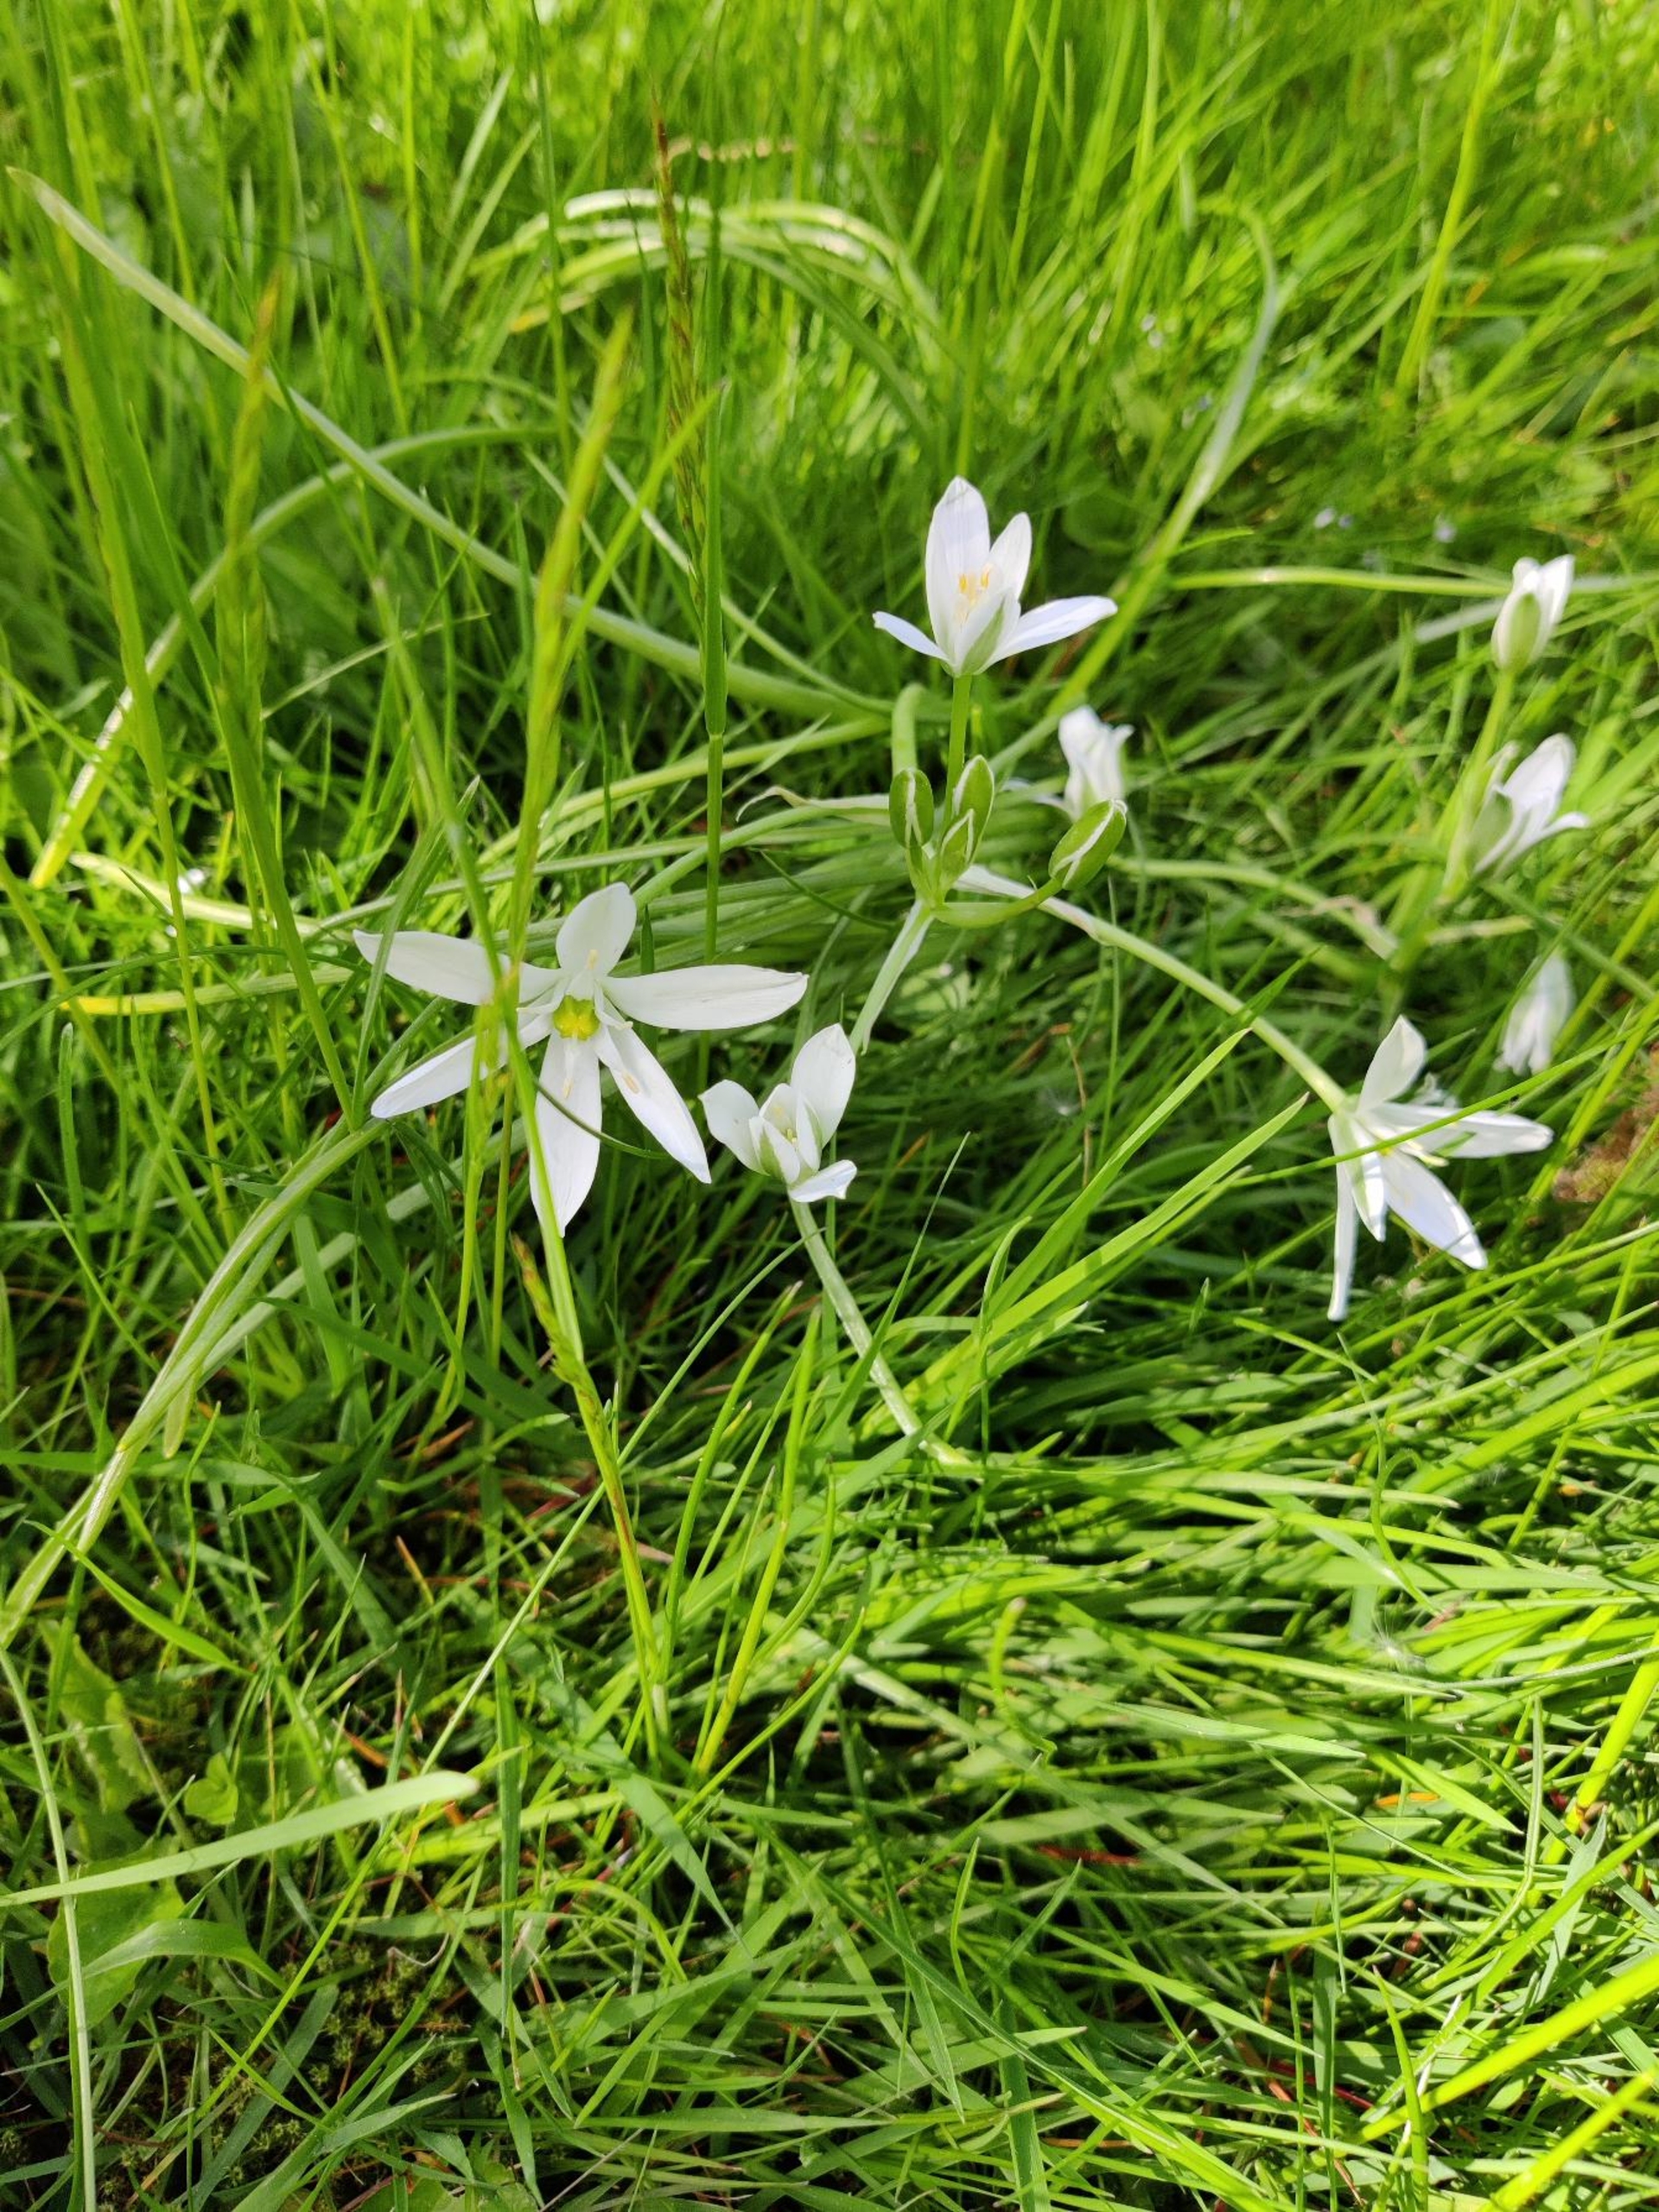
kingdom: Plantae
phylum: Tracheophyta
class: Liliopsida
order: Asparagales
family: Asparagaceae
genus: Ornithogalum
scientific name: Ornithogalum umbellatum
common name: Kost-fuglemælk
